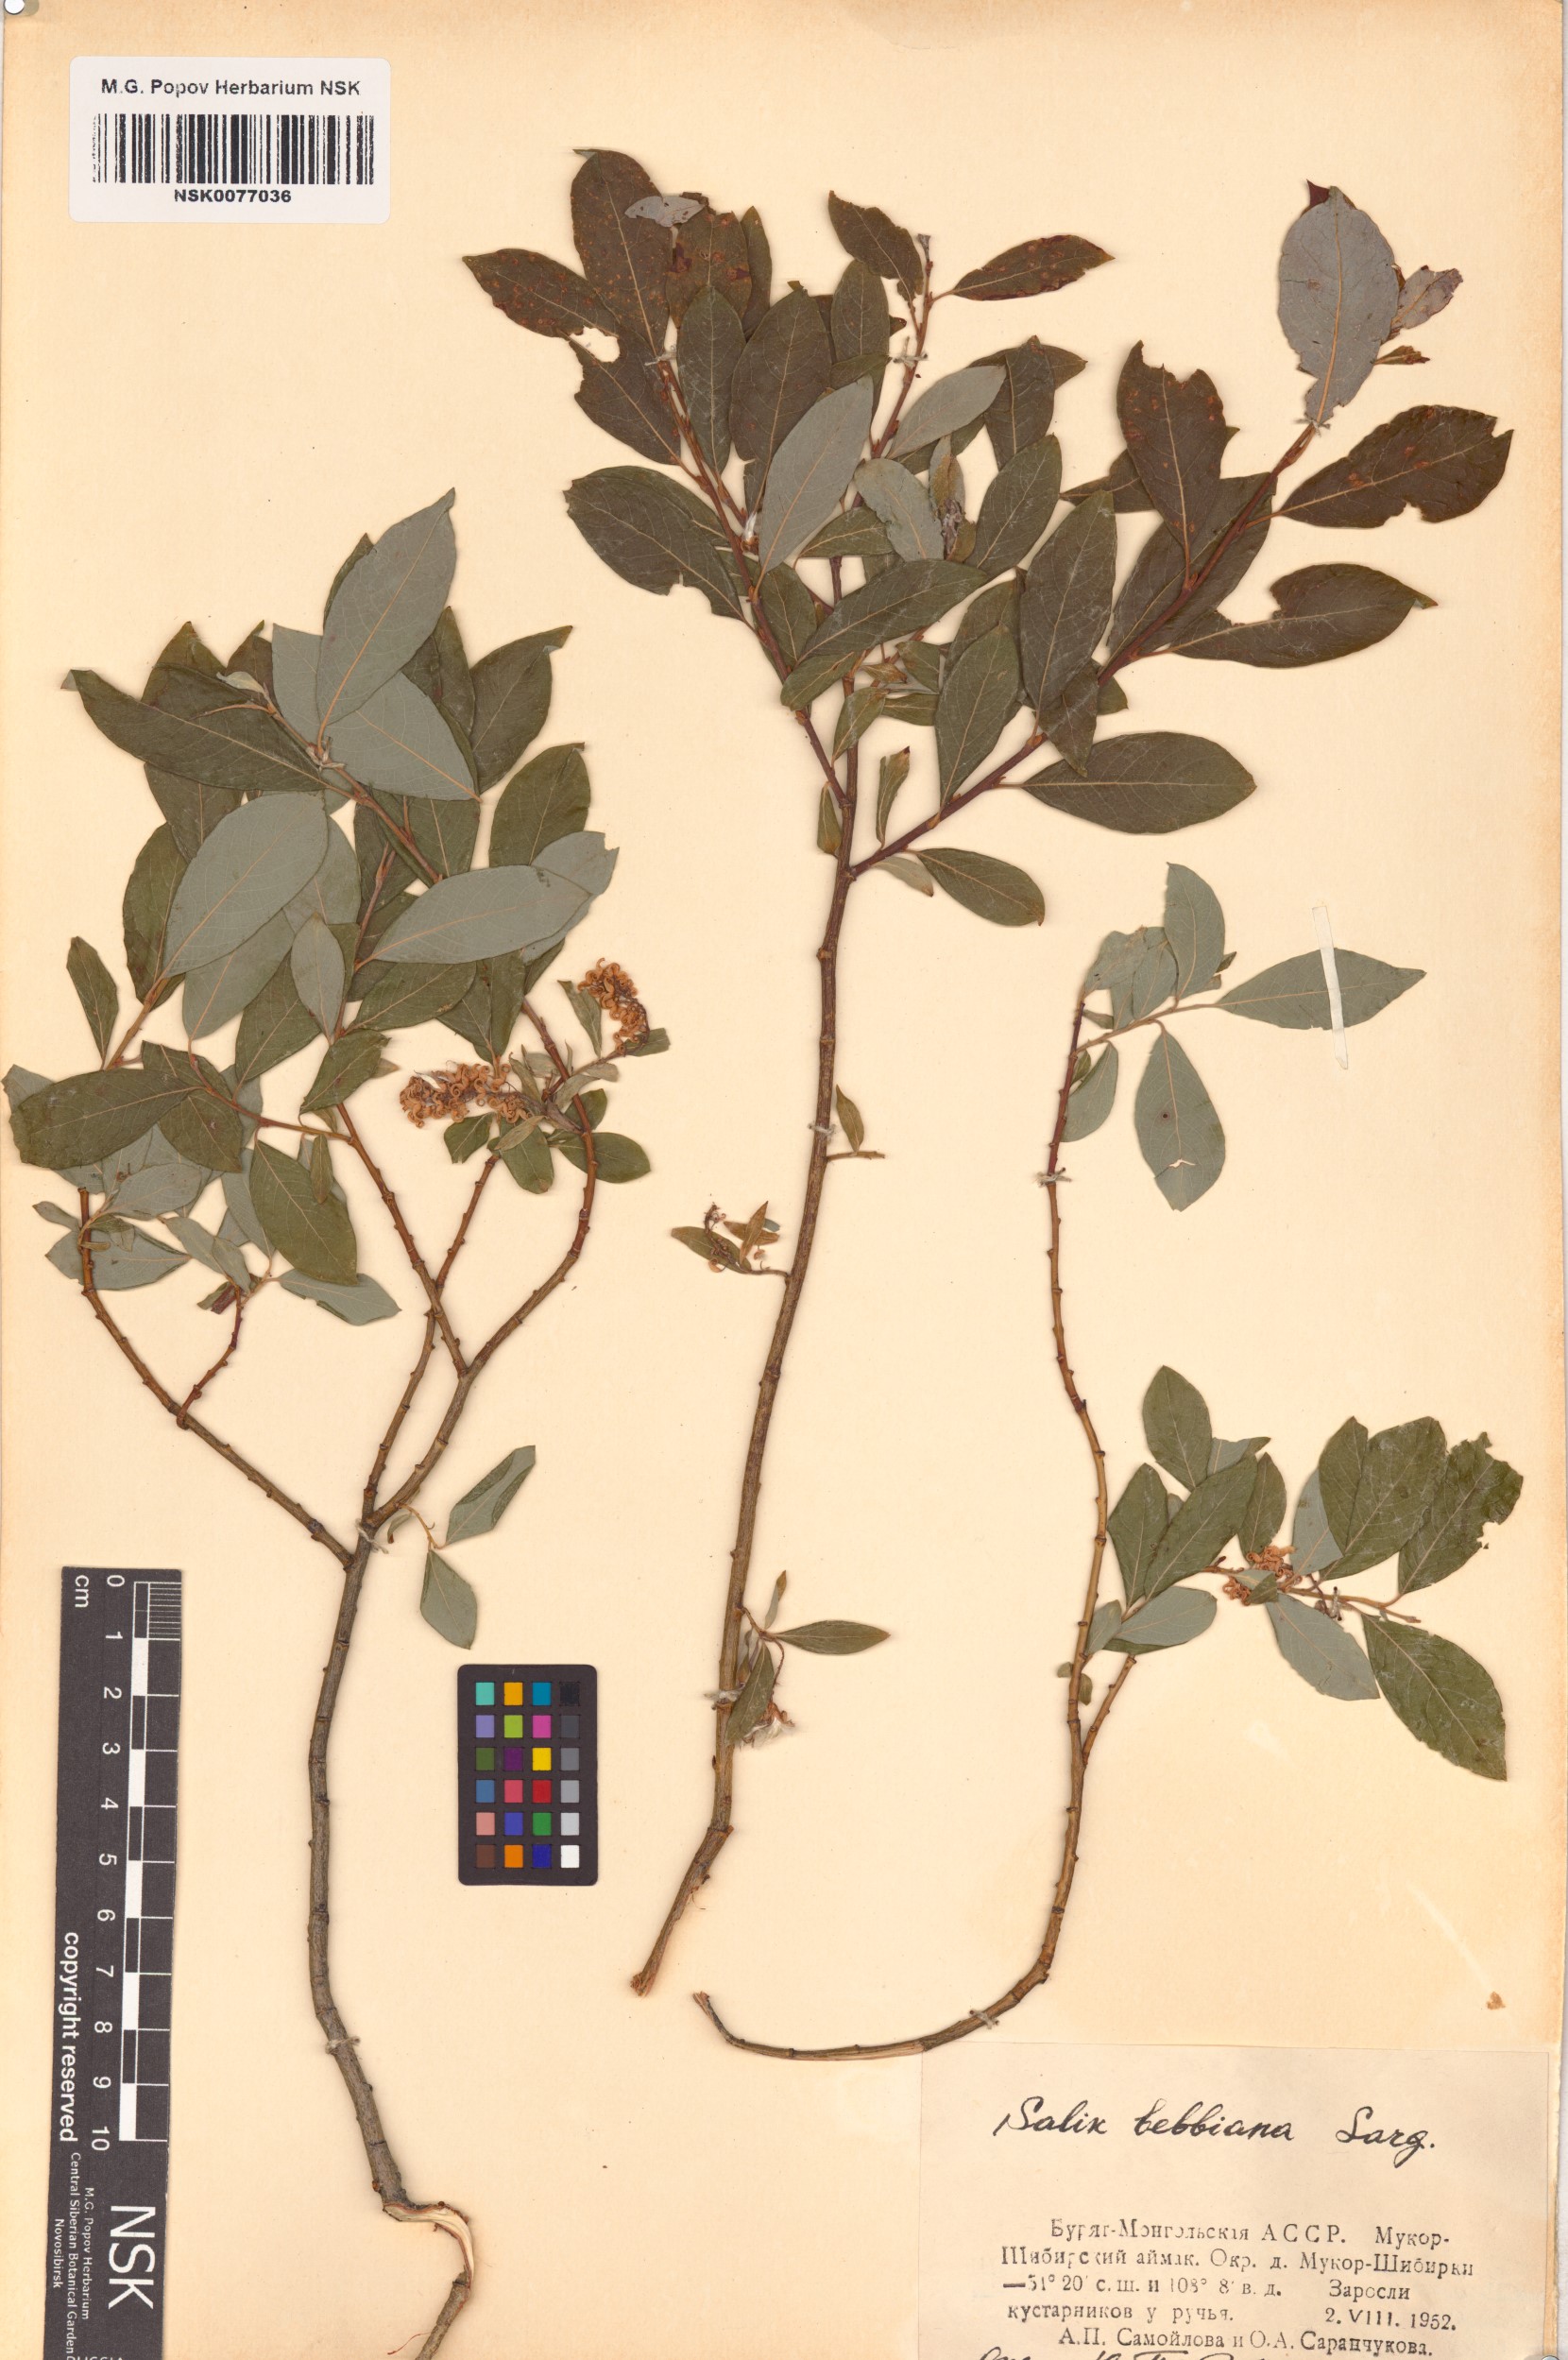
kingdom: Plantae
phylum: Tracheophyta
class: Magnoliopsida
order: Malpighiales
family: Salicaceae
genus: Salix
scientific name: Salix bebbiana
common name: Bebb's willow
